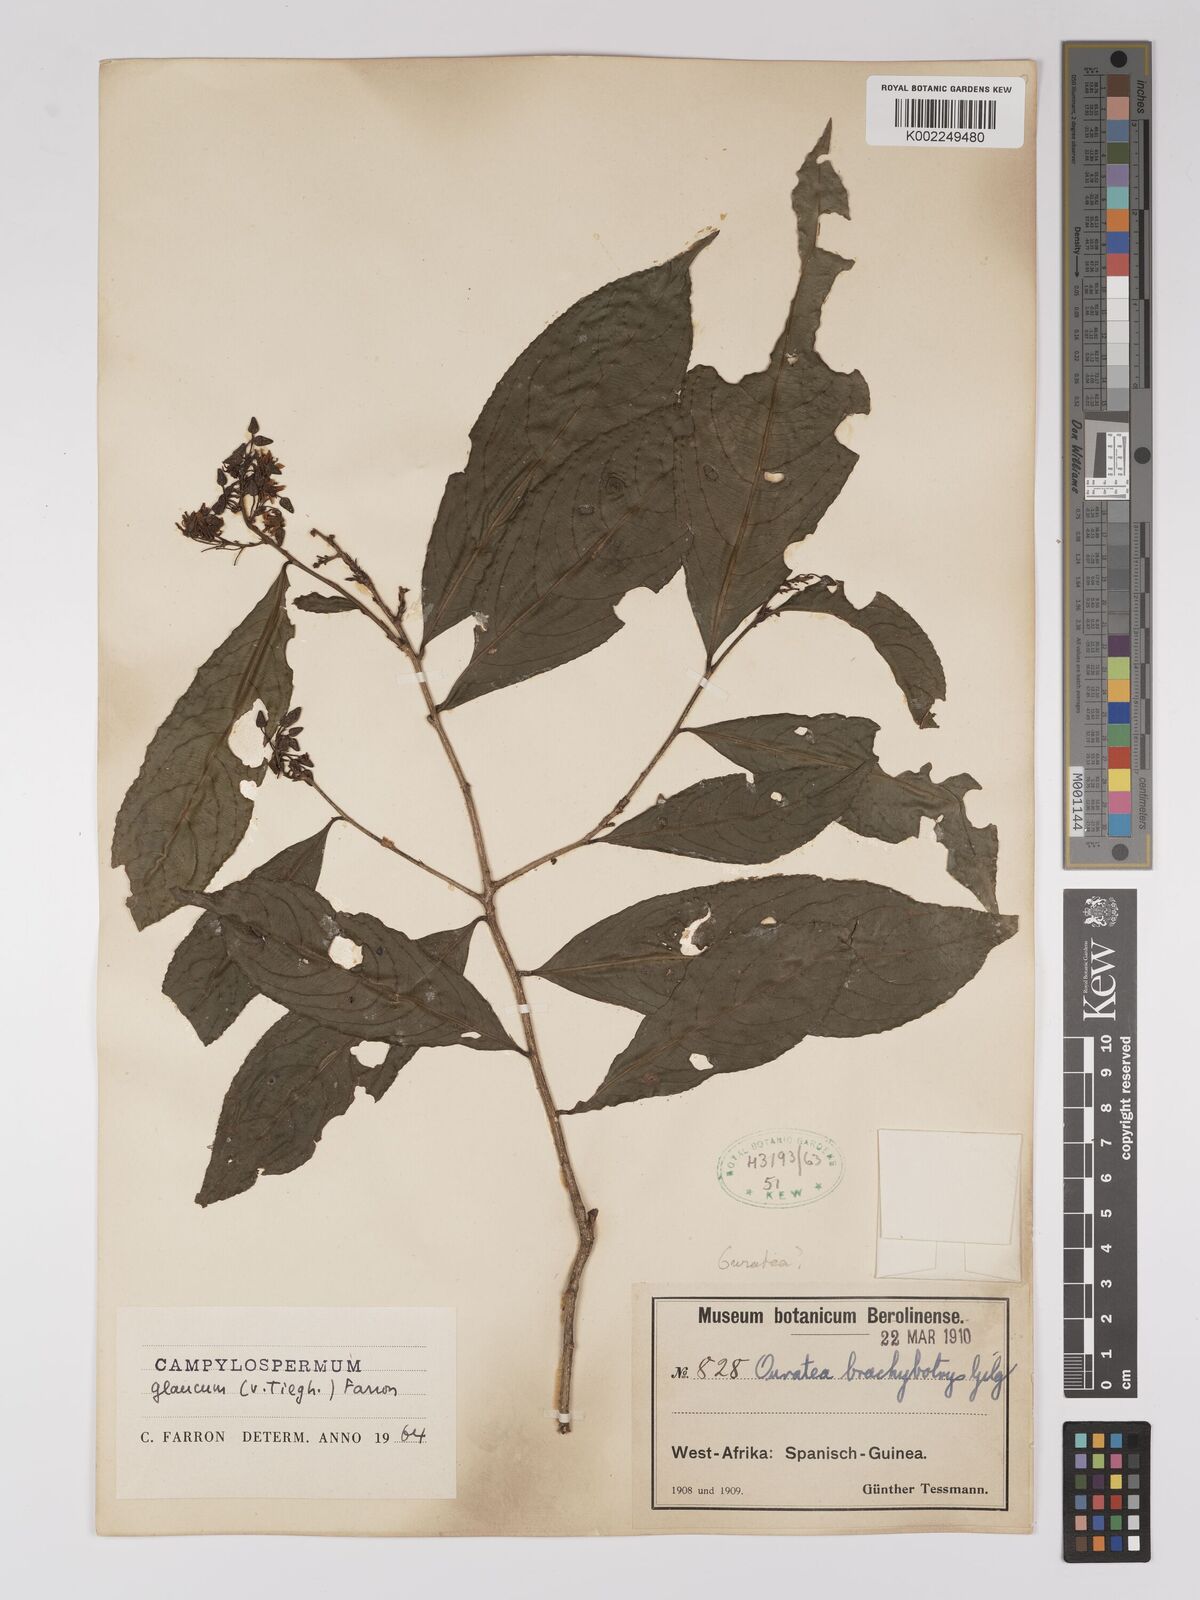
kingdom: Plantae
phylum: Tracheophyta
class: Magnoliopsida
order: Malpighiales
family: Ochnaceae
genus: Campylospermum
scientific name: Campylospermum glaucum
